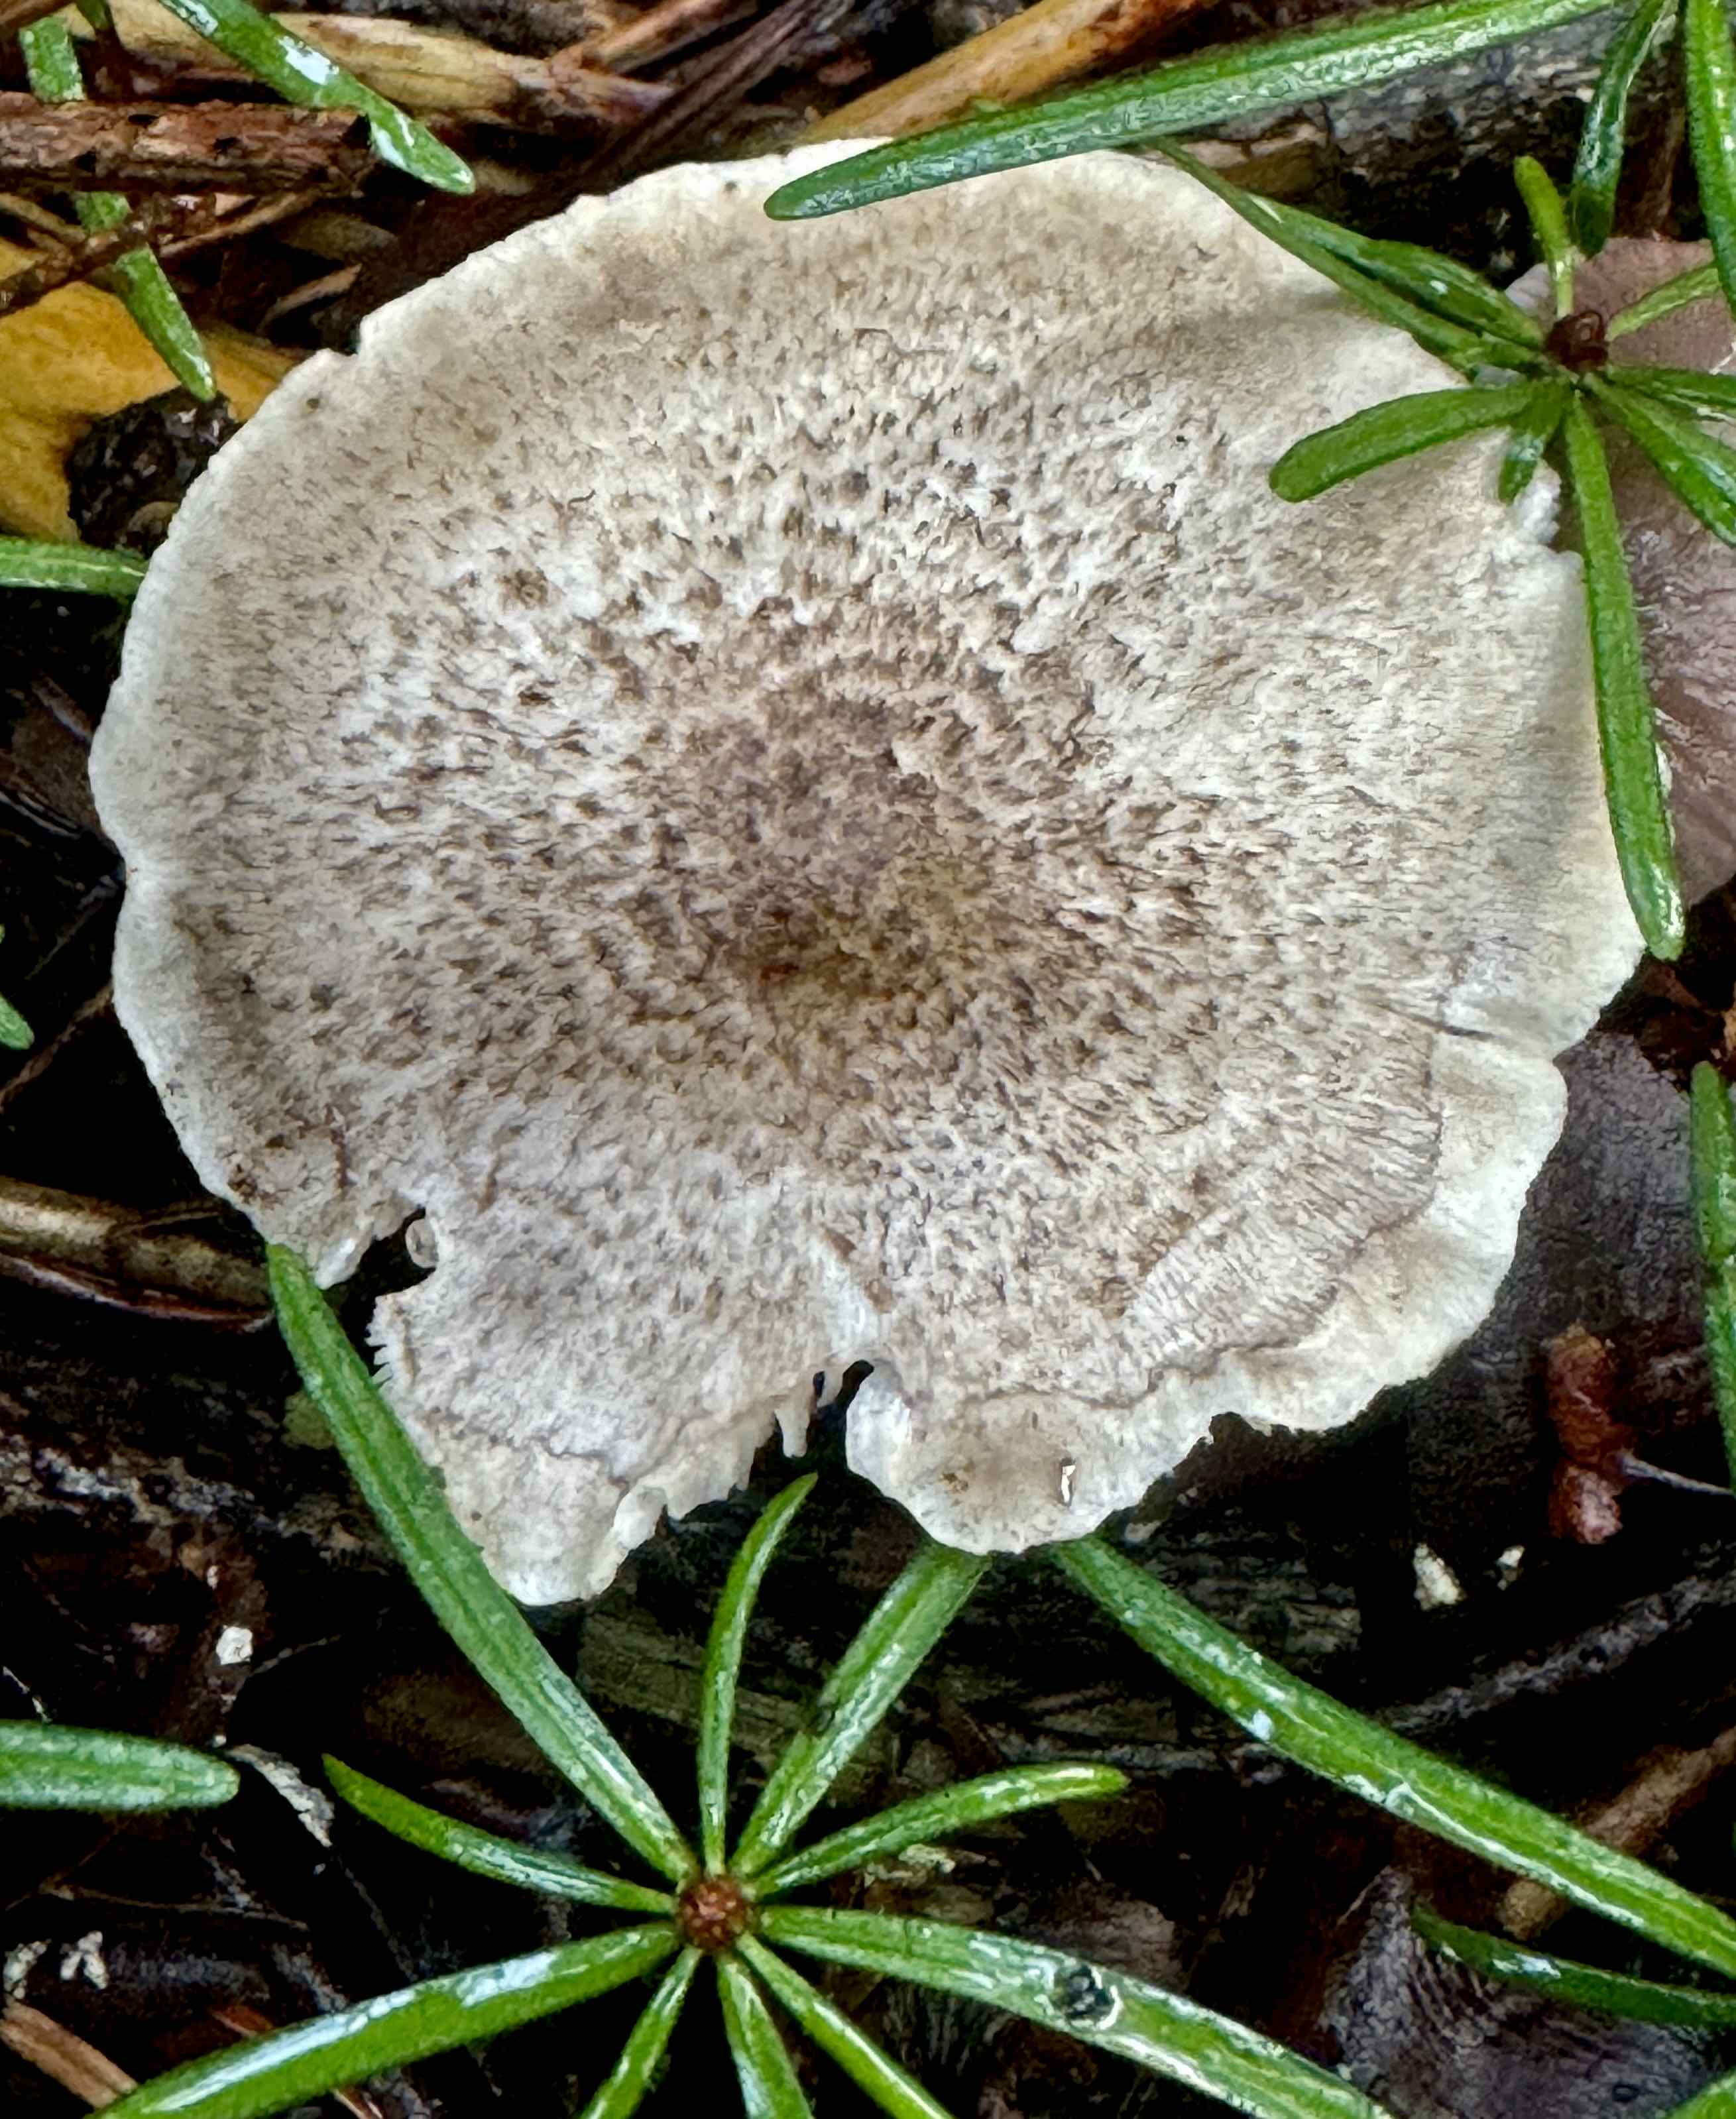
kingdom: Fungi
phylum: Basidiomycota
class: Agaricomycetes
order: Agaricales
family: Tricholomataceae
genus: Tricholoma
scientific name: Tricholoma scalpturatum
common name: gulplettet ridderhat
